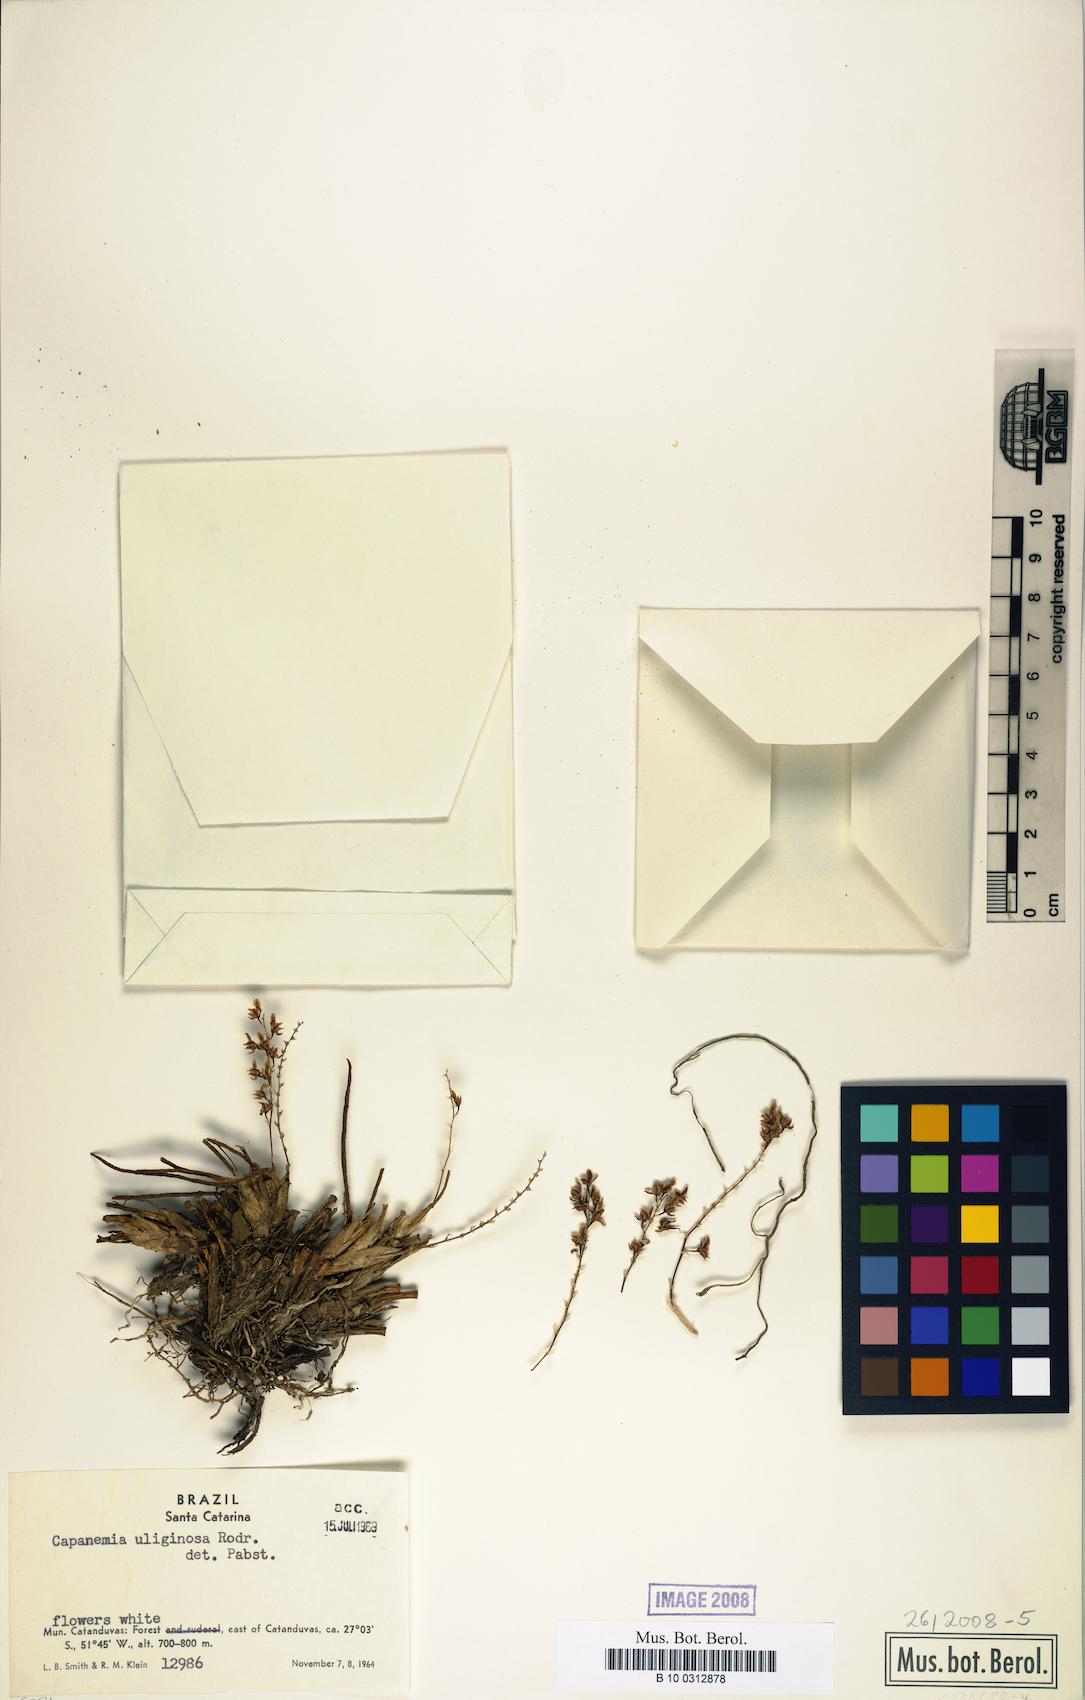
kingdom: Plantae
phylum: Tracheophyta
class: Liliopsida
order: Asparagales
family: Orchidaceae
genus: Capanemia
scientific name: Capanemia superflua
